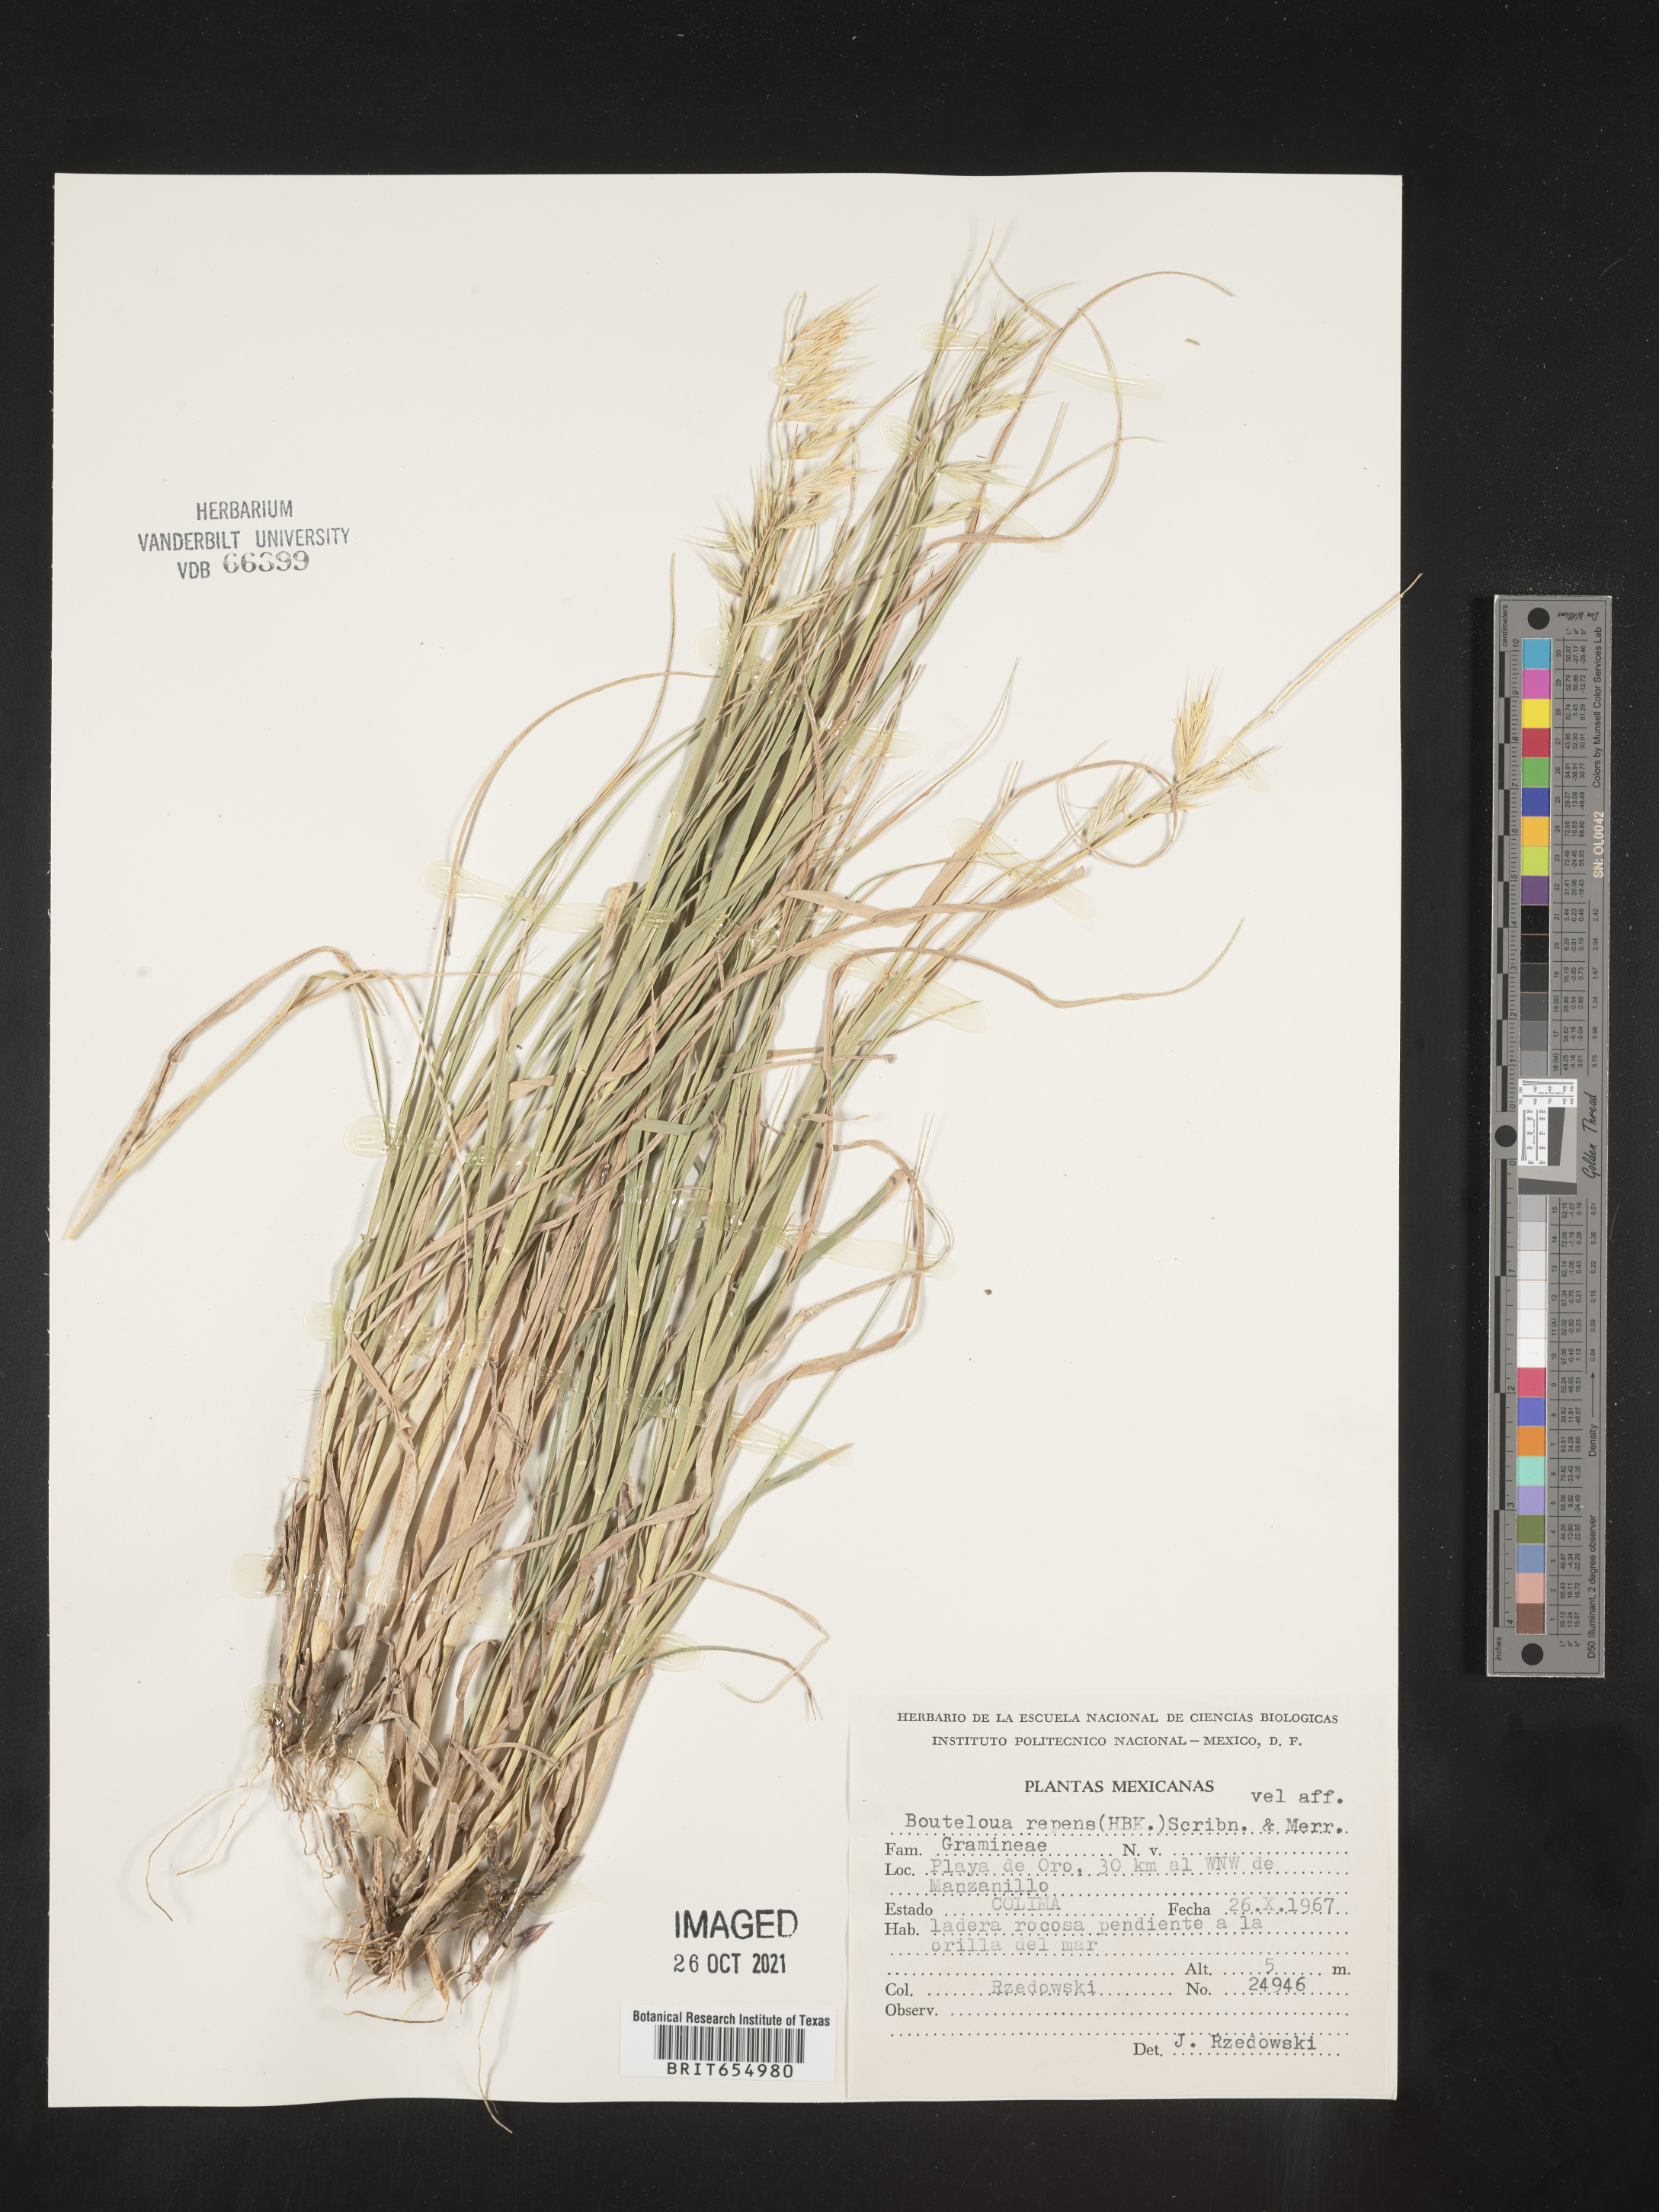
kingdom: Plantae
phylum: Tracheophyta
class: Liliopsida
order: Poales
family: Poaceae
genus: Bouteloua
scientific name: Bouteloua
